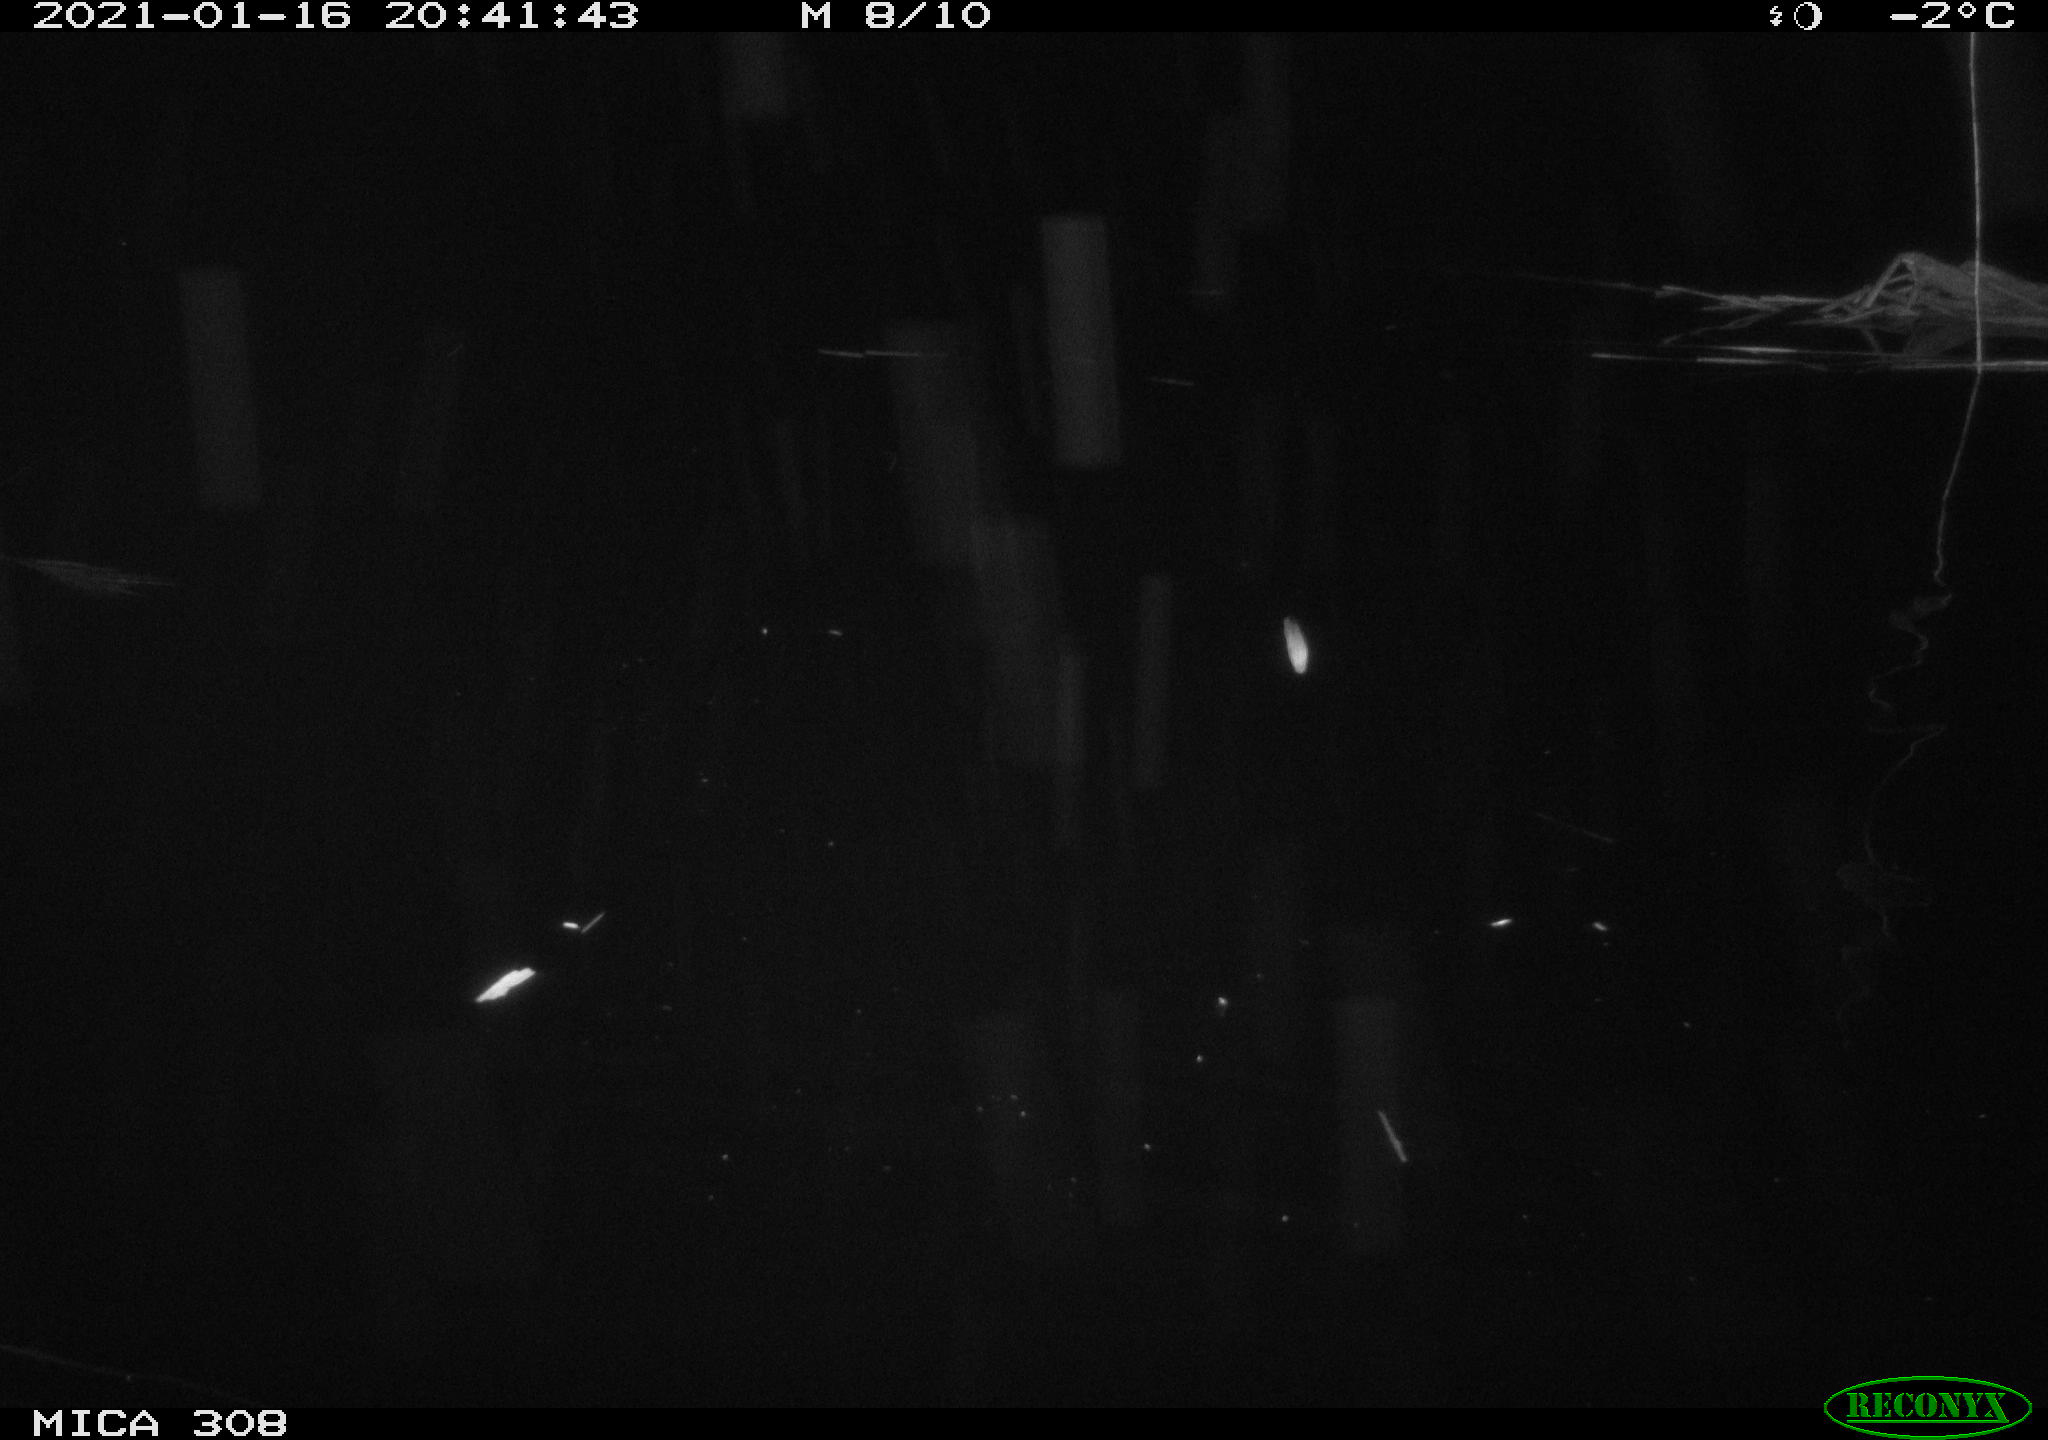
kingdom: Animalia
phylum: Chordata
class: Mammalia
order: Rodentia
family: Muridae
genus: Rattus
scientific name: Rattus norvegicus
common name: Brown rat
